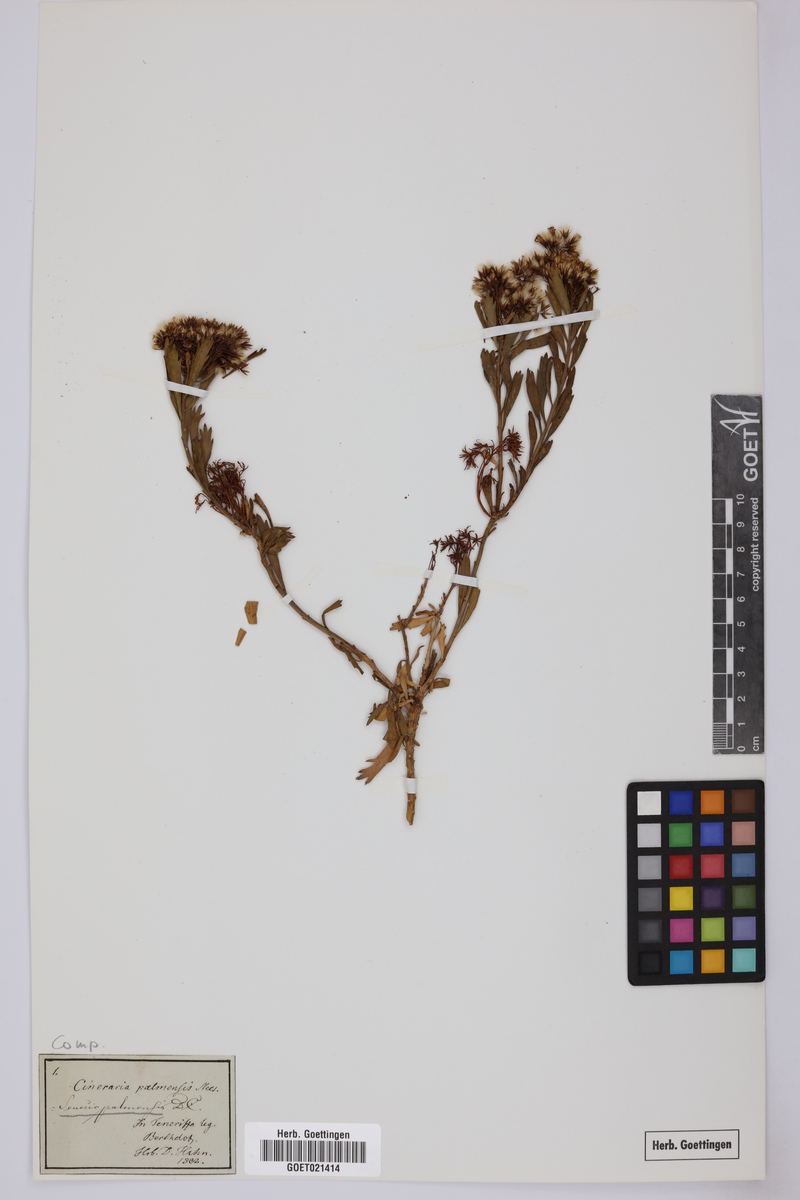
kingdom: Plantae
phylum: Tracheophyta
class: Magnoliopsida
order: Asterales
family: Asteraceae
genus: Bethencourtia
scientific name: Bethencourtia palmensis
